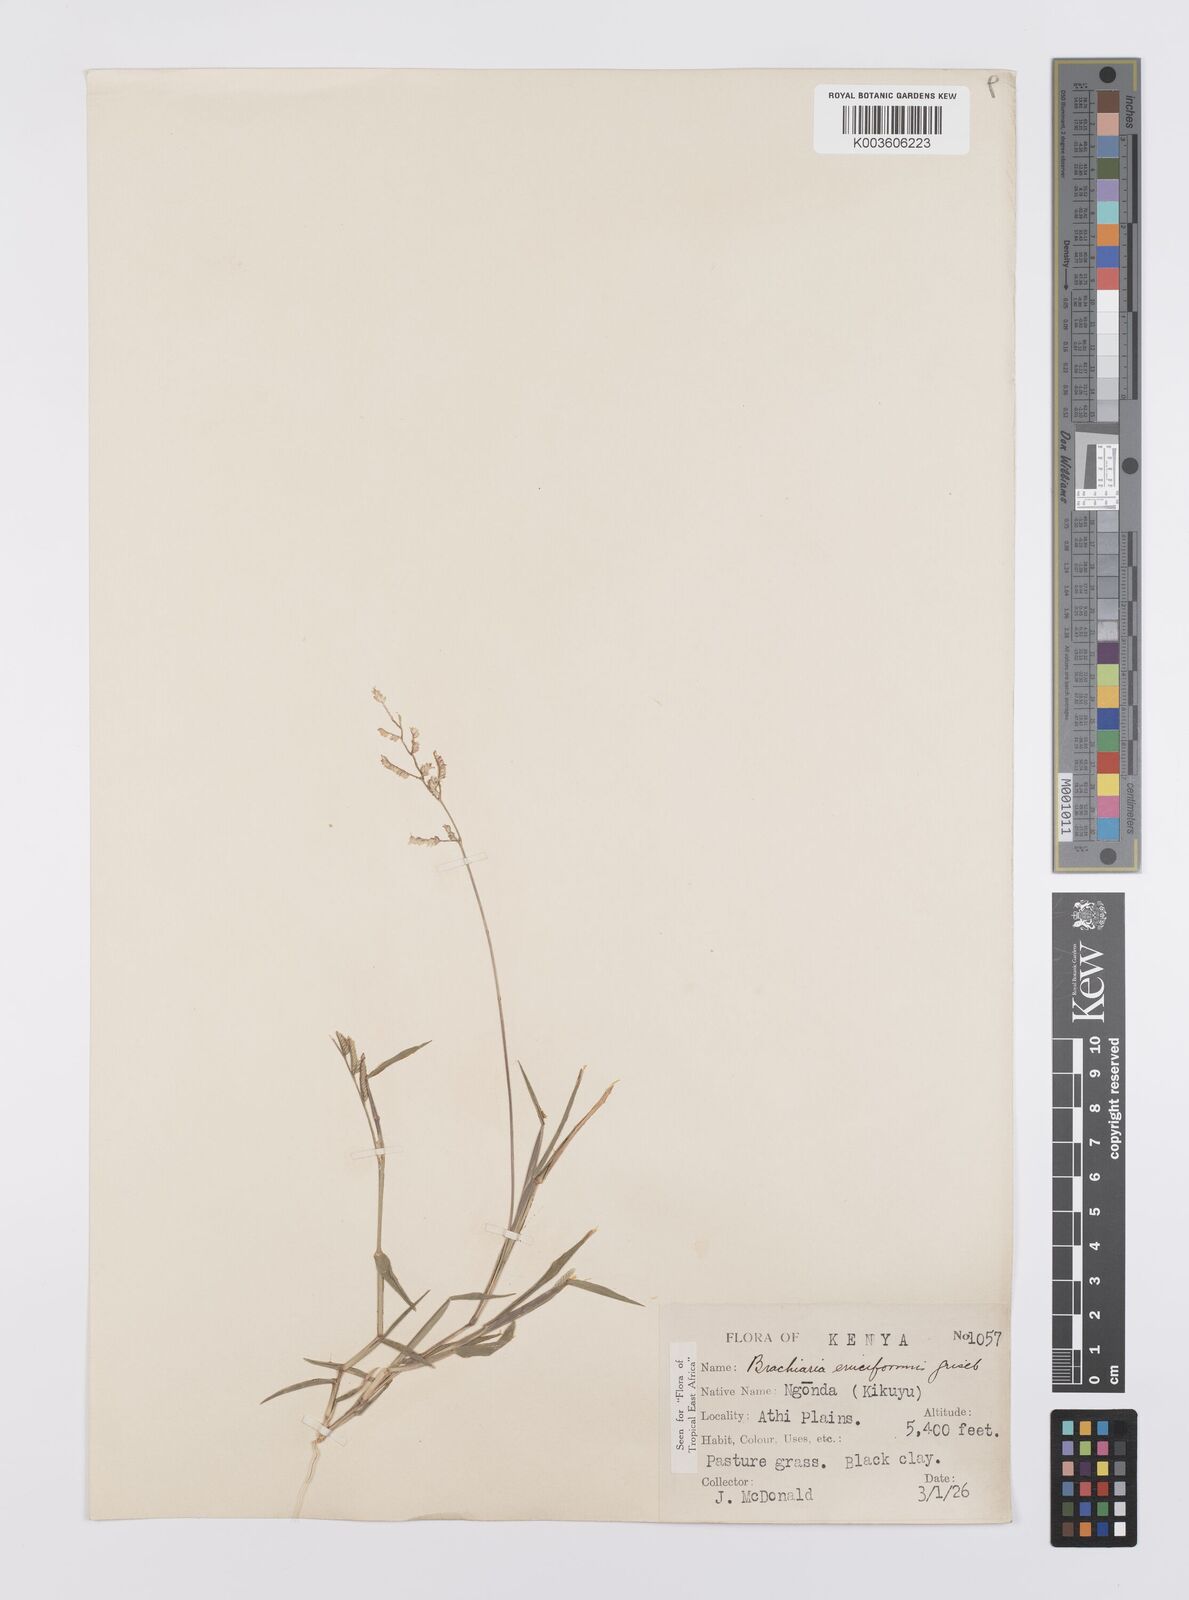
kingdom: Plantae
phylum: Tracheophyta
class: Liliopsida
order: Poales
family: Poaceae
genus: Moorochloa
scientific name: Moorochloa eruciformis
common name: Sweet signalgrass
